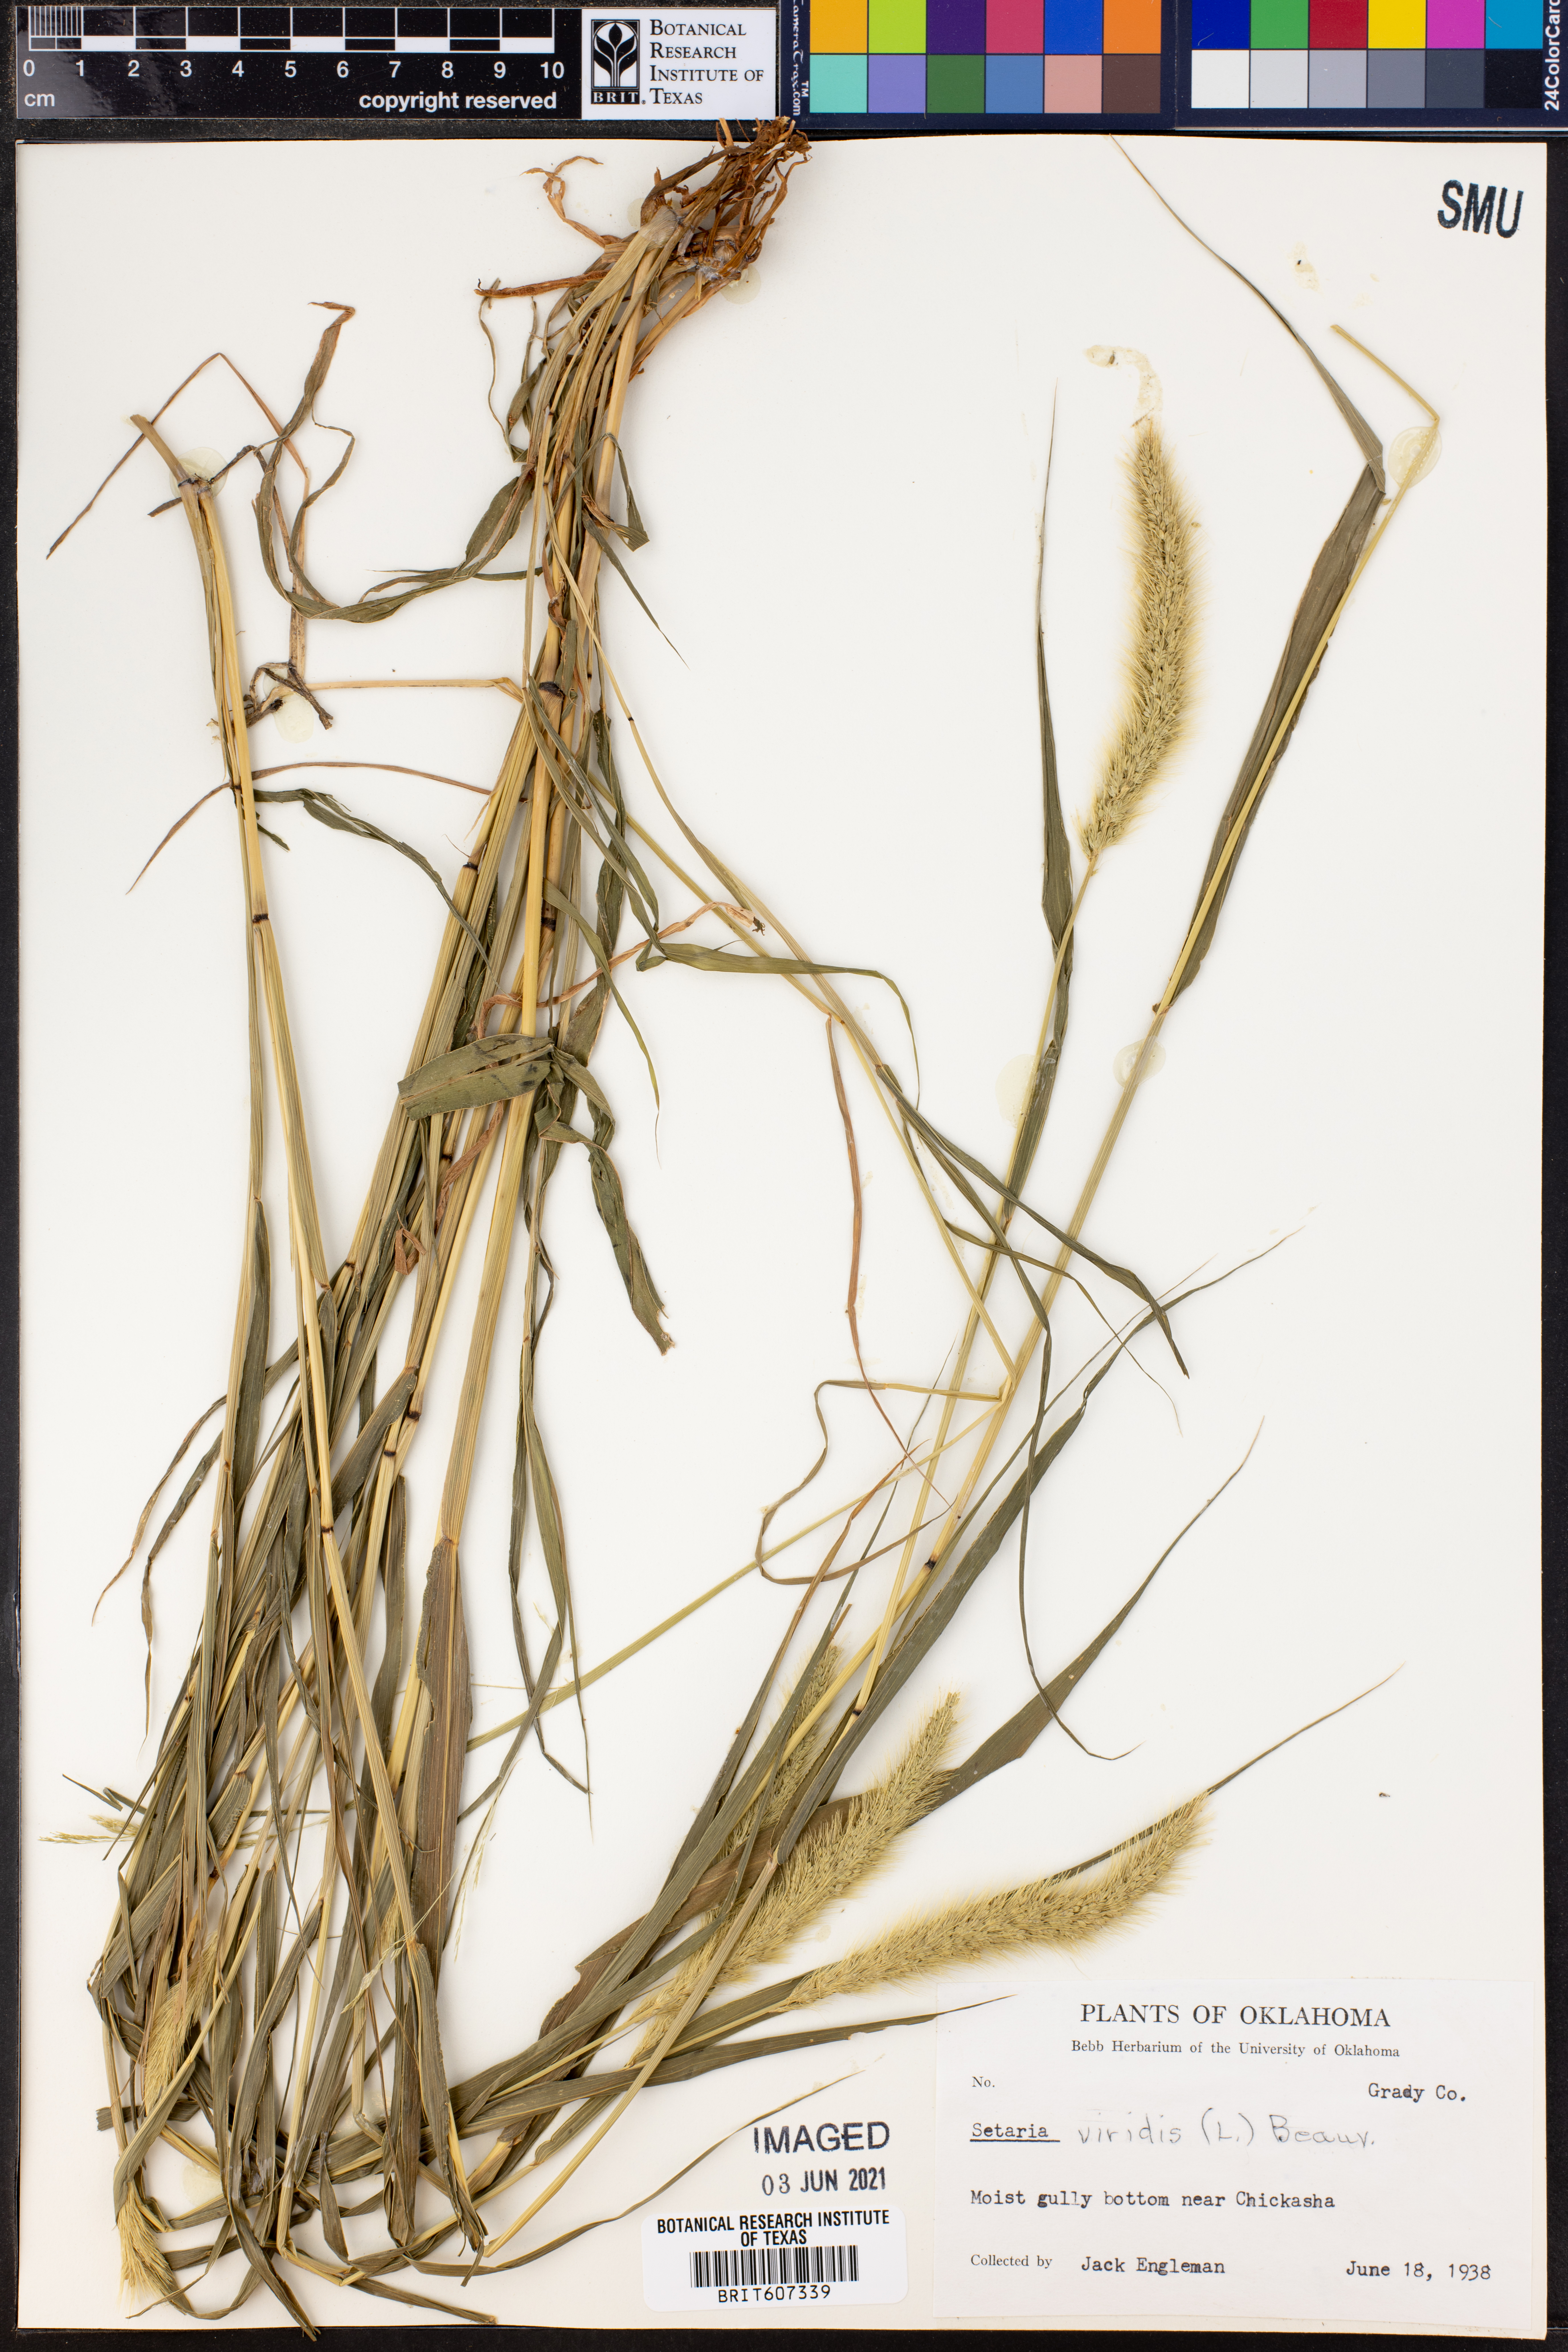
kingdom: Plantae
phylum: Tracheophyta
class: Liliopsida
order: Poales
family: Poaceae
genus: Setaria
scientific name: Setaria viridis
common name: Green bristlegrass
